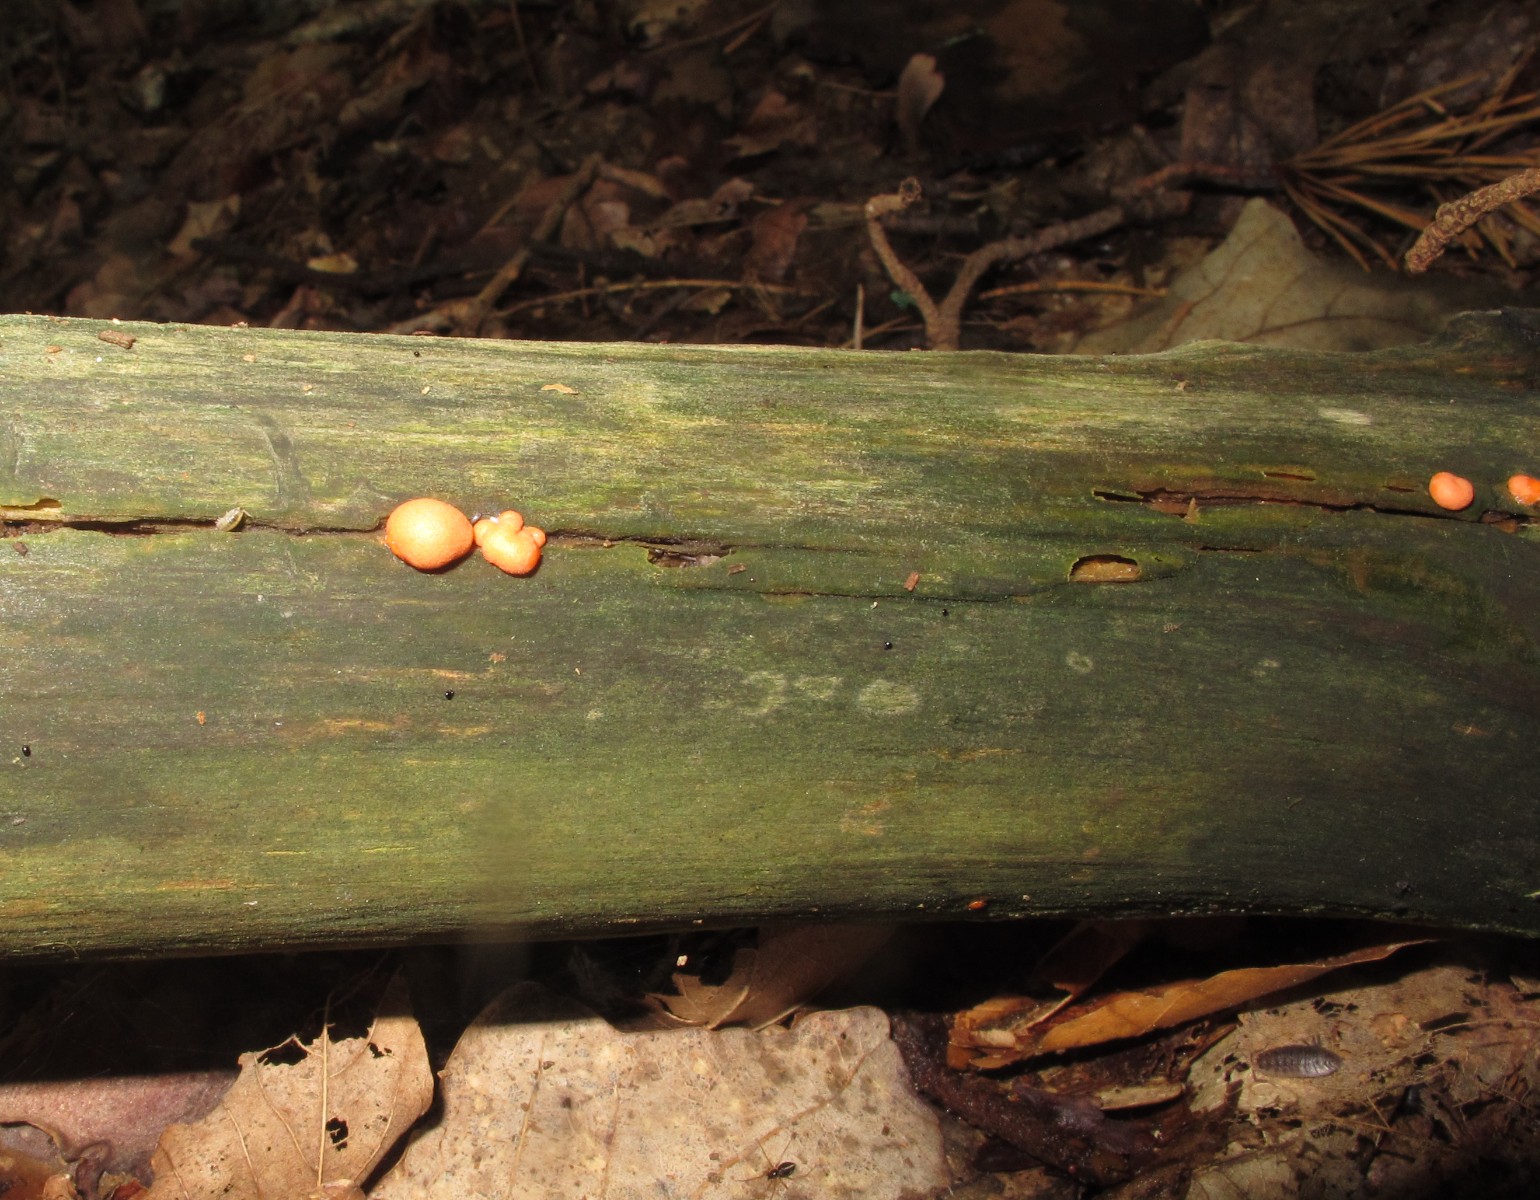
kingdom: Protozoa
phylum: Mycetozoa
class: Myxomycetes
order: Cribrariales
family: Tubiferaceae
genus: Lycogala
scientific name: Lycogala epidendrum
